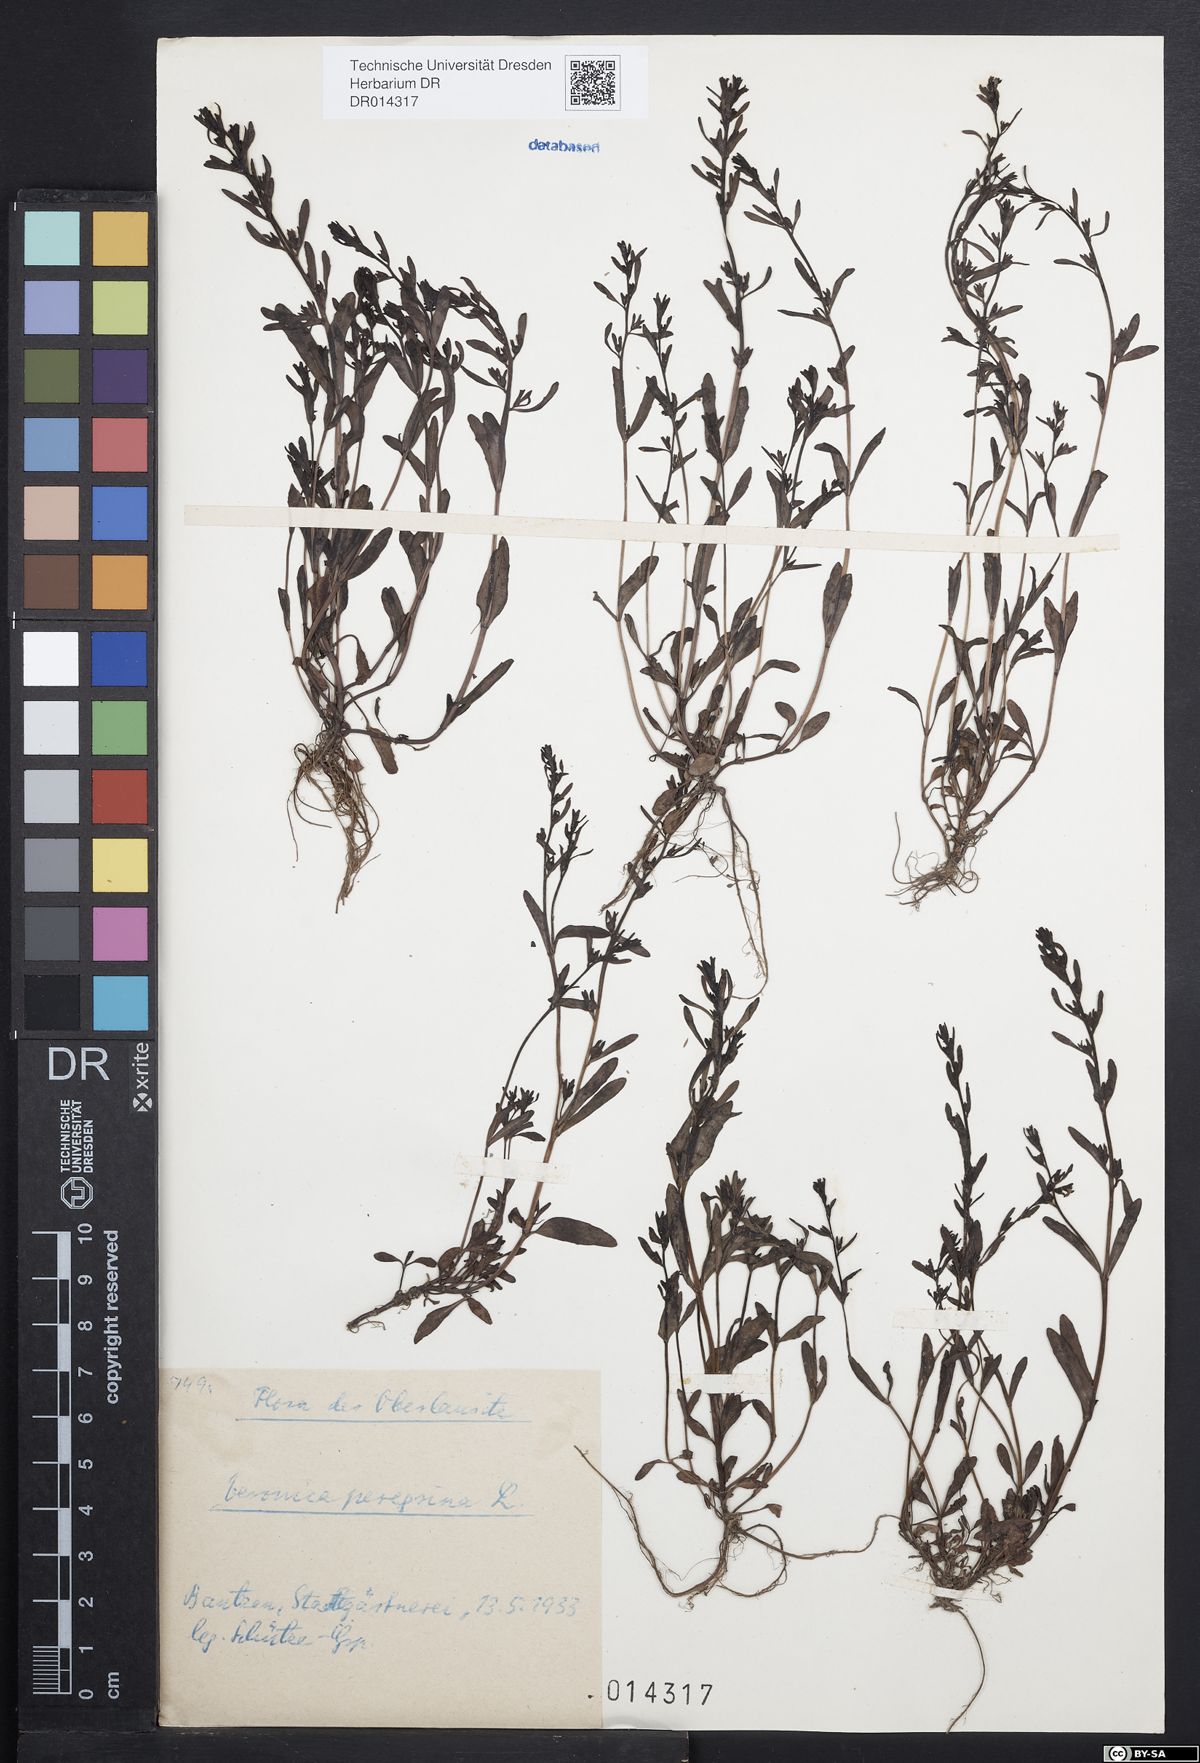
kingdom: Plantae
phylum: Tracheophyta
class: Magnoliopsida
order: Lamiales
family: Plantaginaceae
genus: Veronica
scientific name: Veronica peregrina
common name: Neckweed
